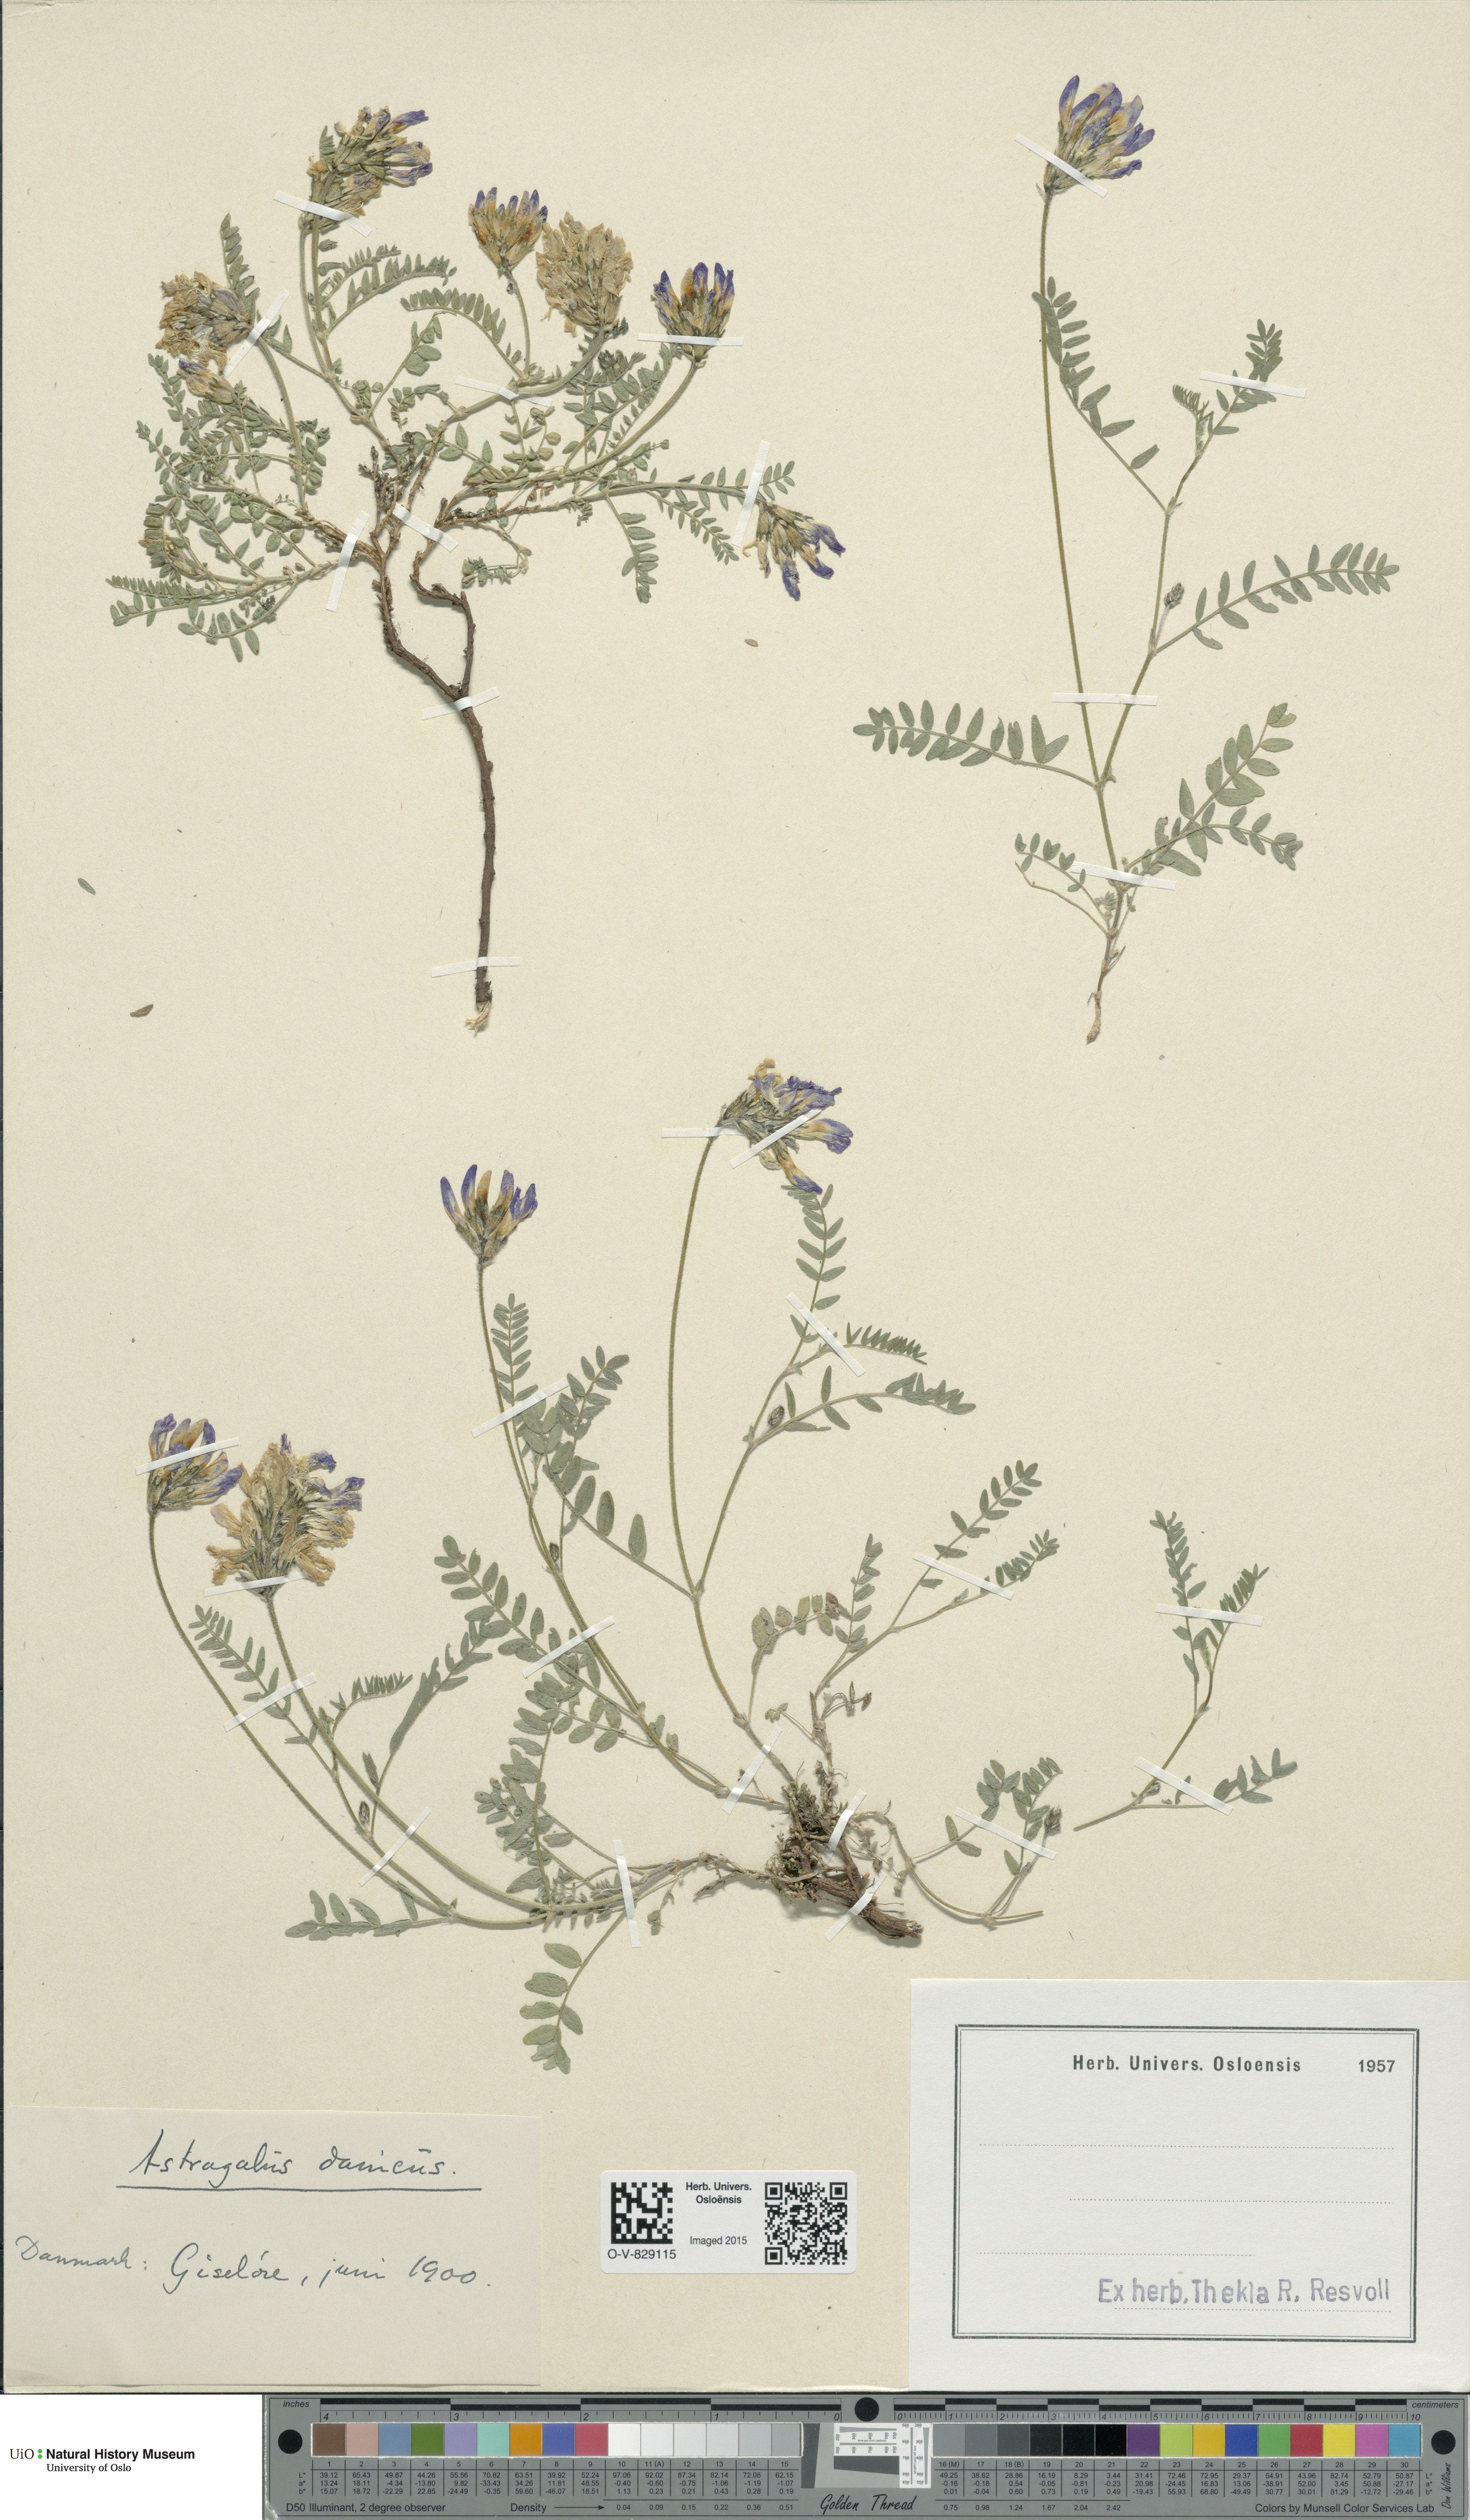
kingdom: Plantae
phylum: Tracheophyta
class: Magnoliopsida
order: Fabales
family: Fabaceae
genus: Astragalus
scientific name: Astragalus danicus
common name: Purple milk-vetch
